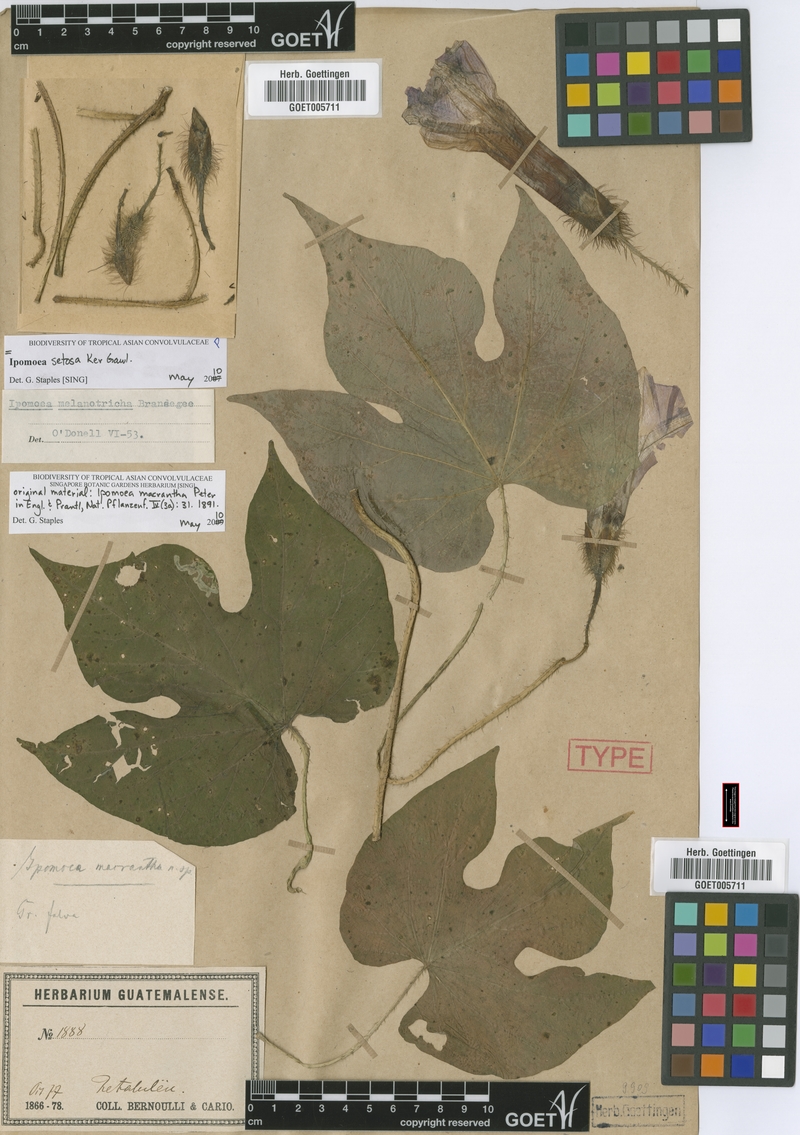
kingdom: Plantae
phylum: Tracheophyta
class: Magnoliopsida
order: Solanales
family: Convolvulaceae
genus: Ipomoea
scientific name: Ipomoea setosa
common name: Brazilian morning-glory
